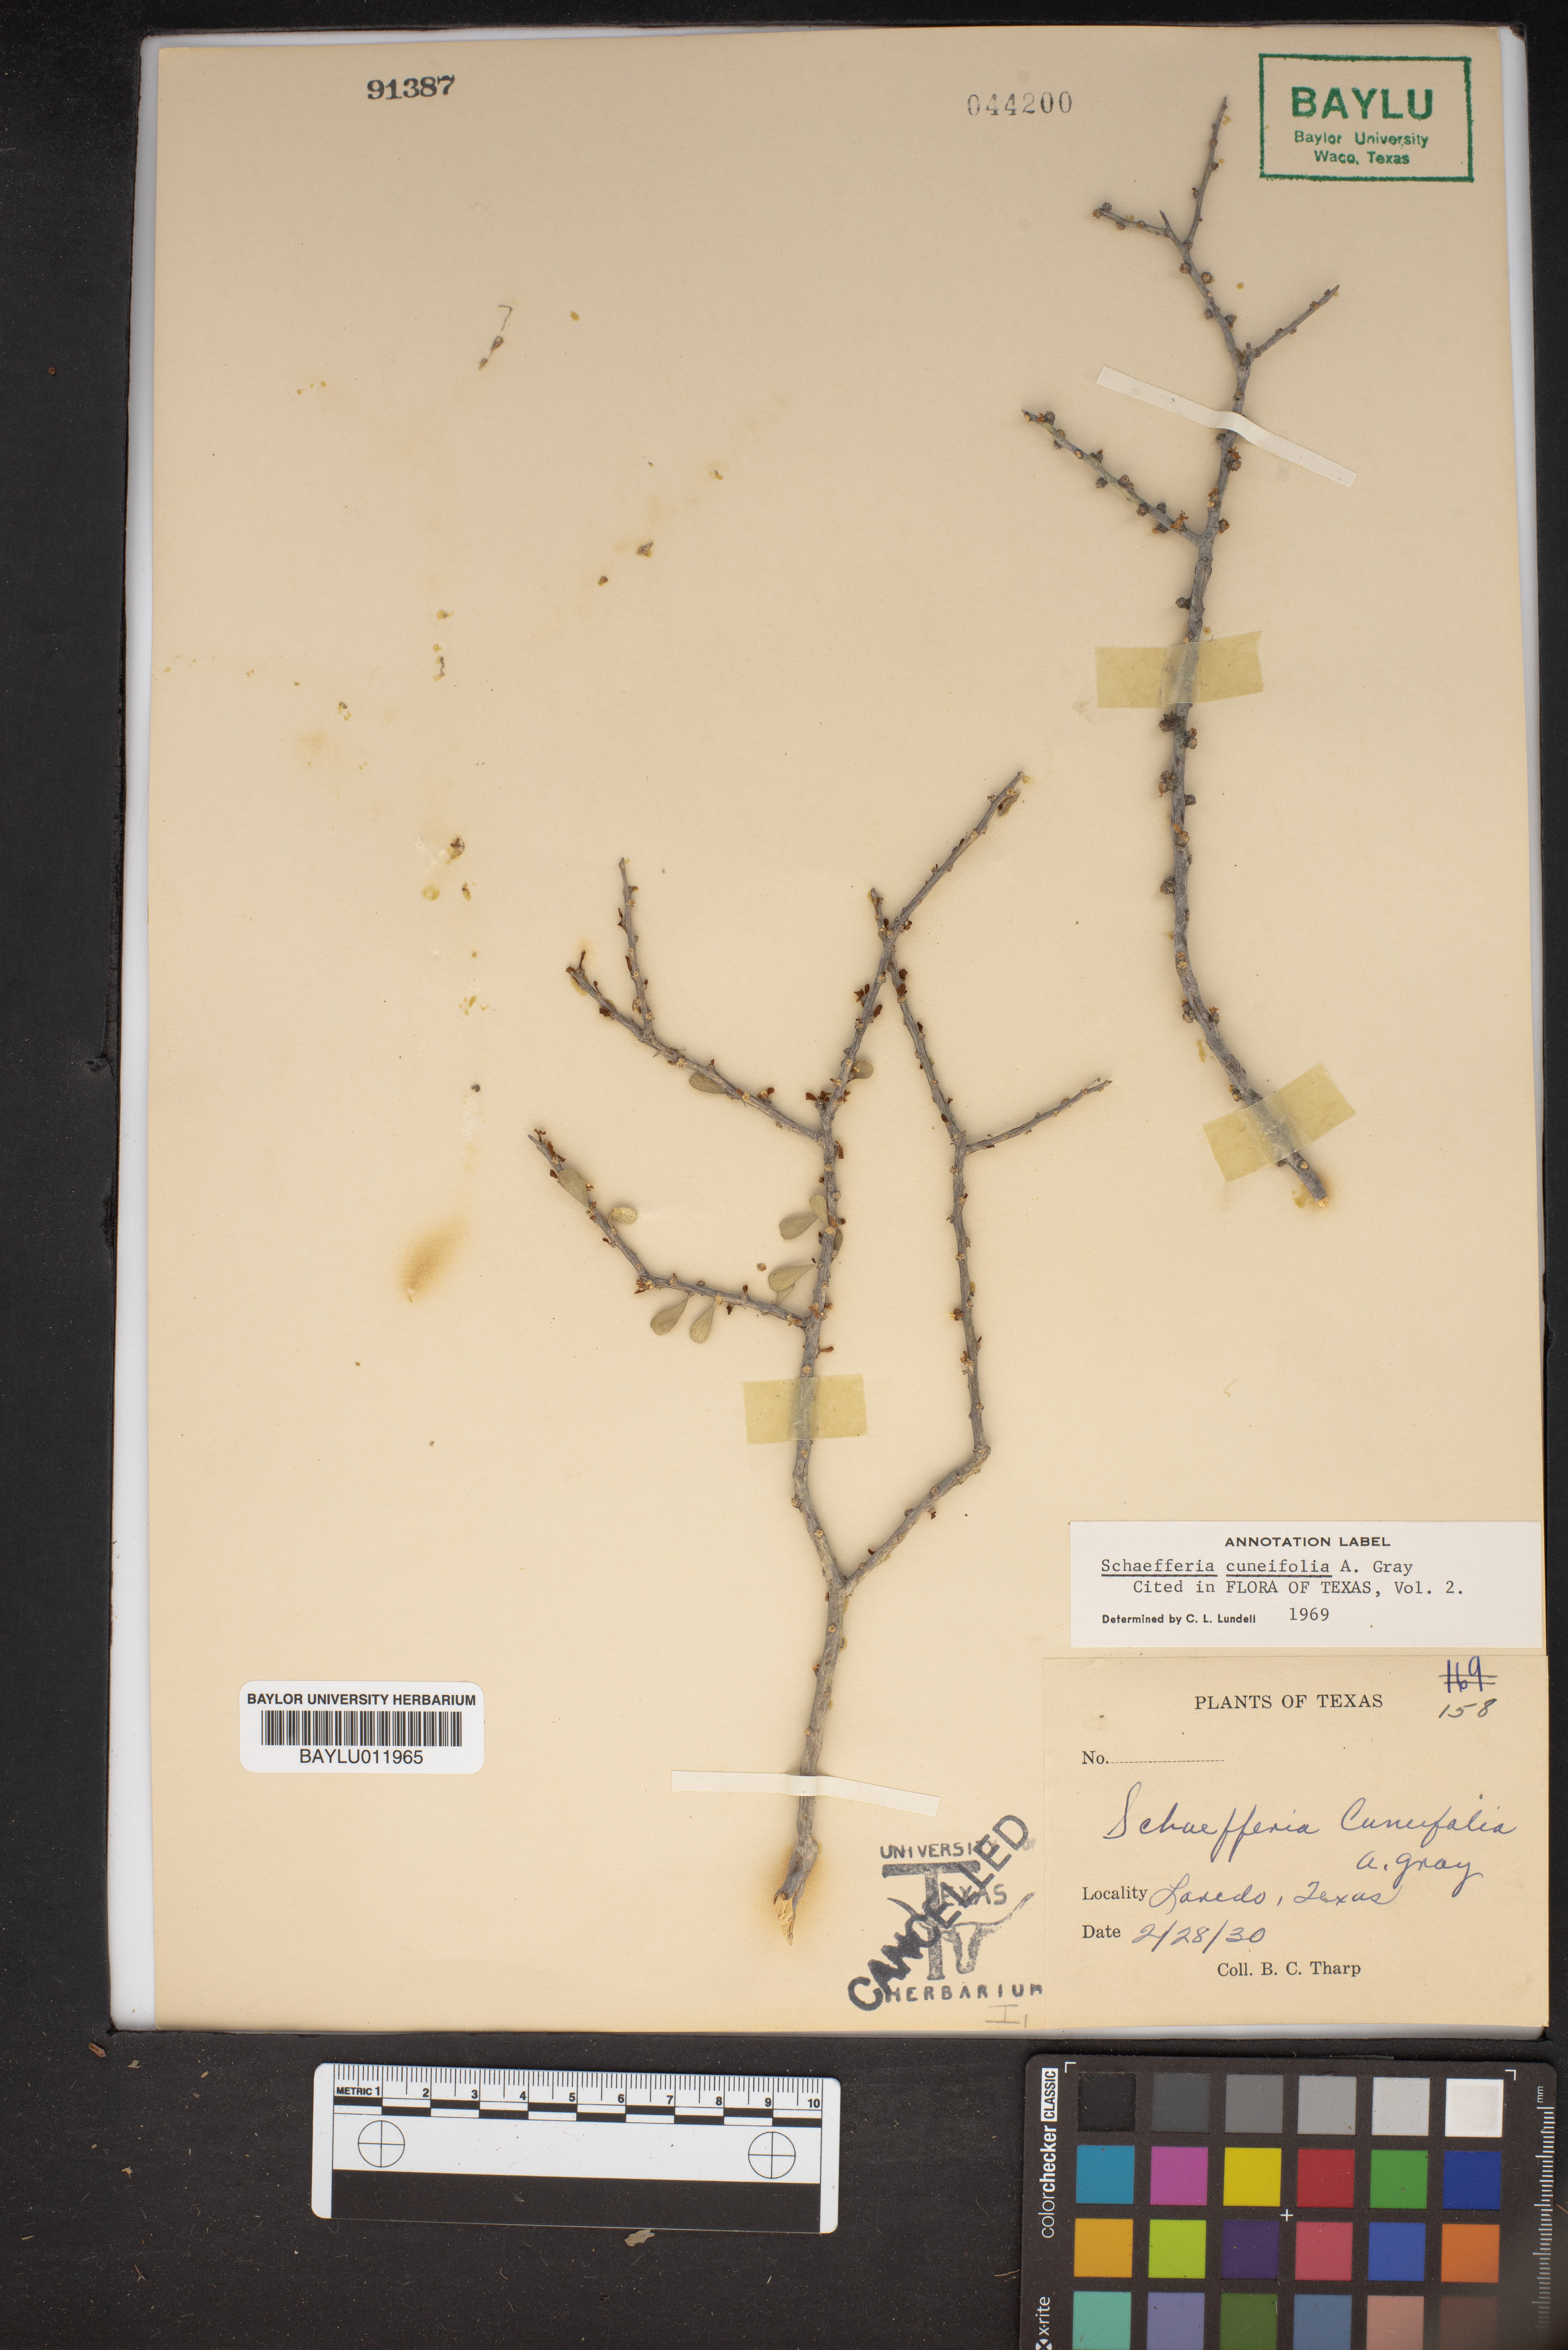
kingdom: Plantae
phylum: Tracheophyta
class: Magnoliopsida
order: Celastrales
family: Celastraceae
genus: Schaefferia
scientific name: Schaefferia cuneifolia
